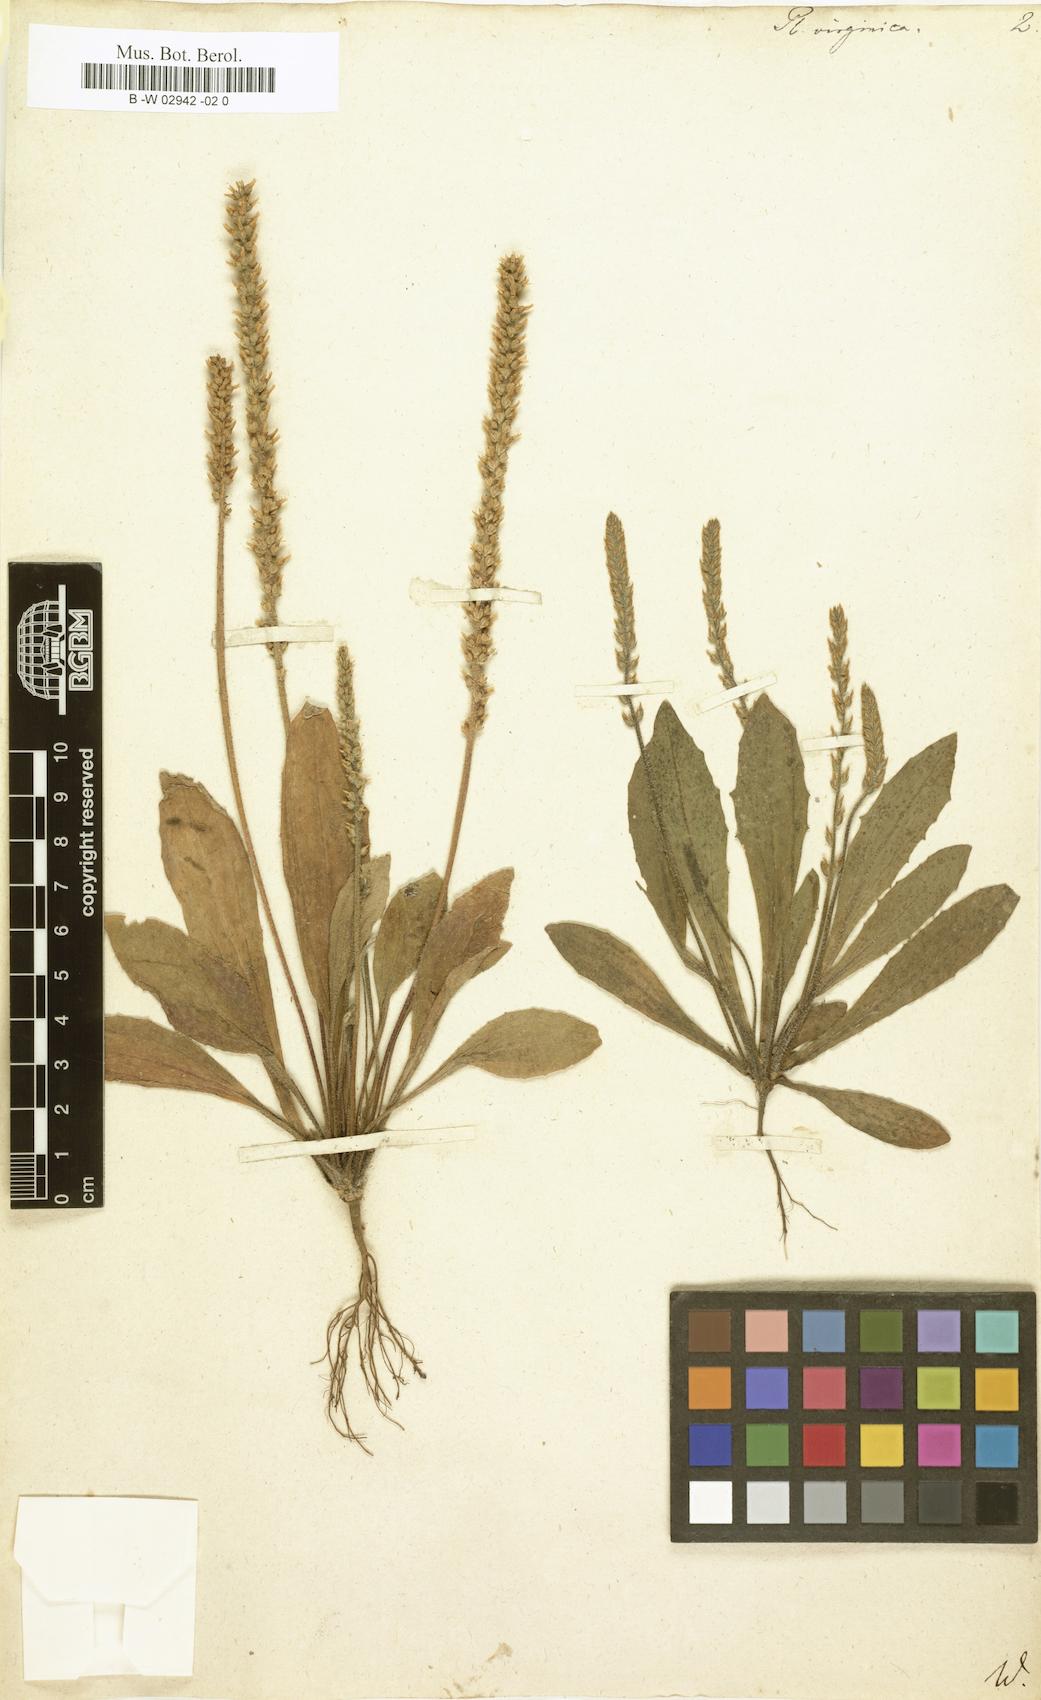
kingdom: Plantae
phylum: Tracheophyta
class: Magnoliopsida
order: Lamiales
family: Plantaginaceae
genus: Plantago
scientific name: Plantago virginica
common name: Hoary plantain
